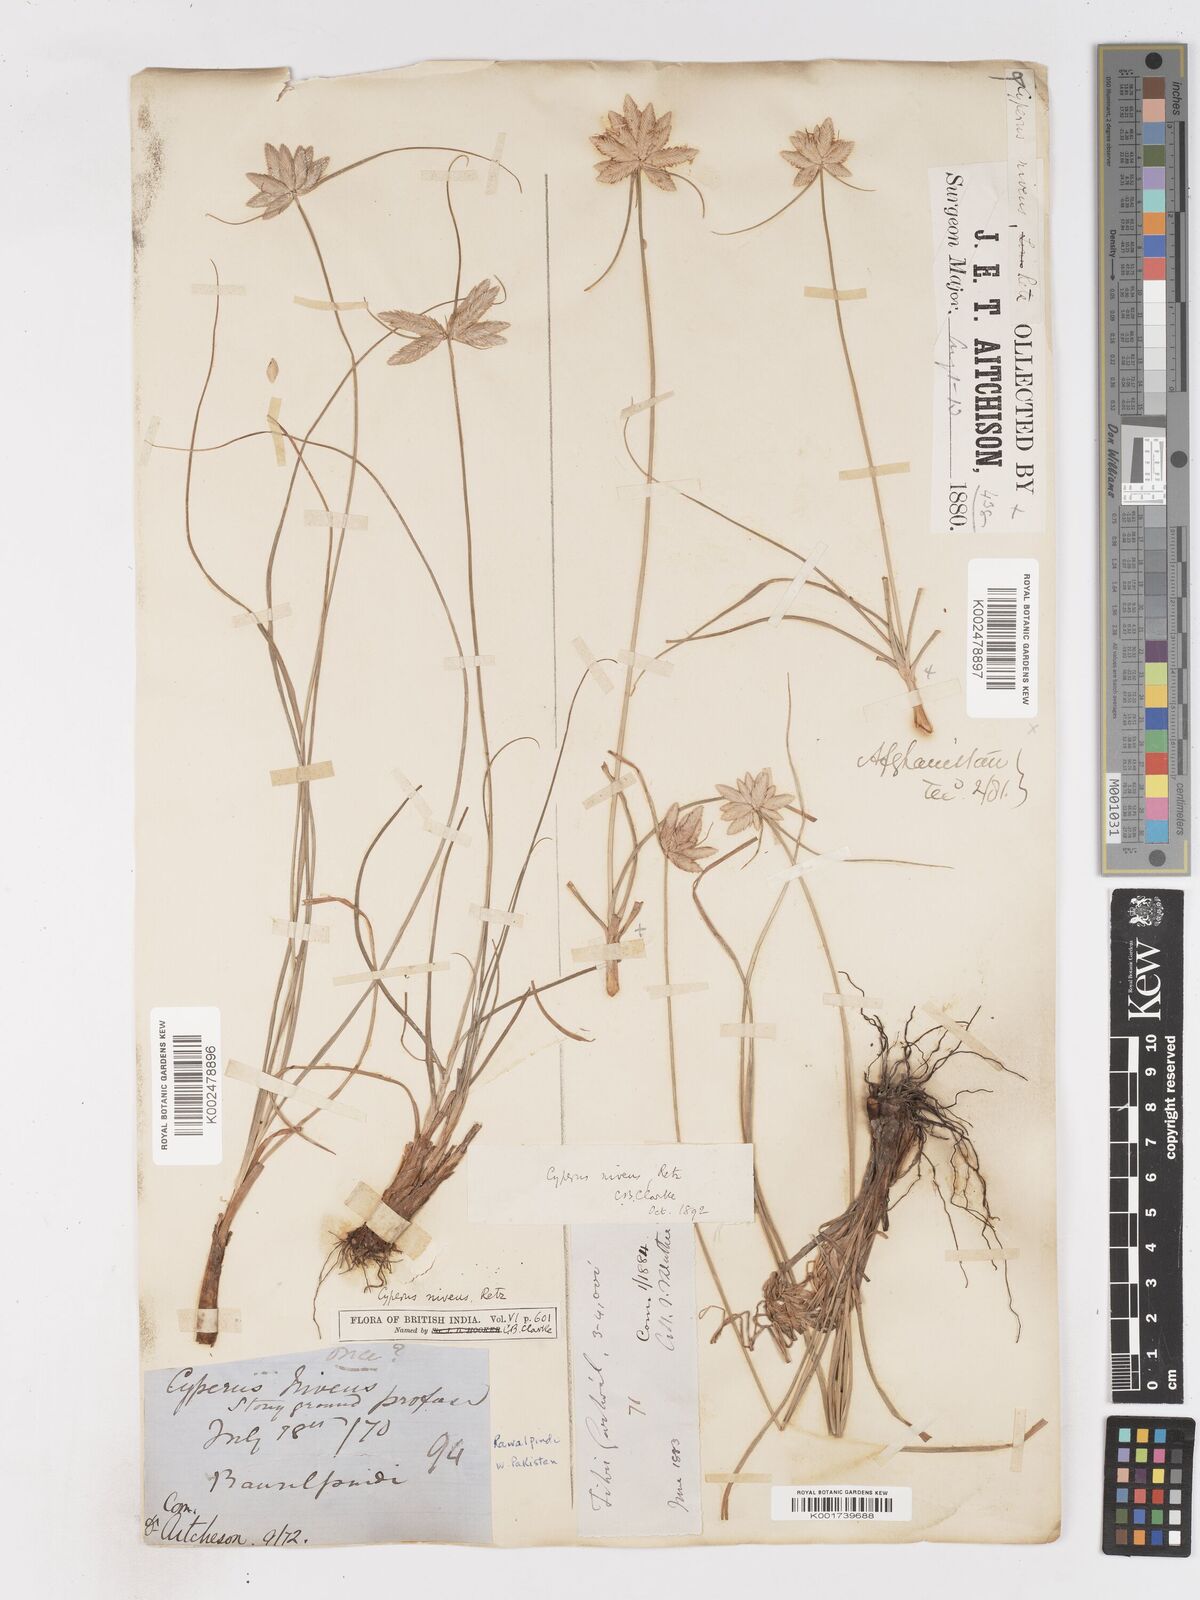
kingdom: Plantae
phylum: Tracheophyta
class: Liliopsida
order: Poales
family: Cyperaceae
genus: Cyperus
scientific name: Cyperus niveus
